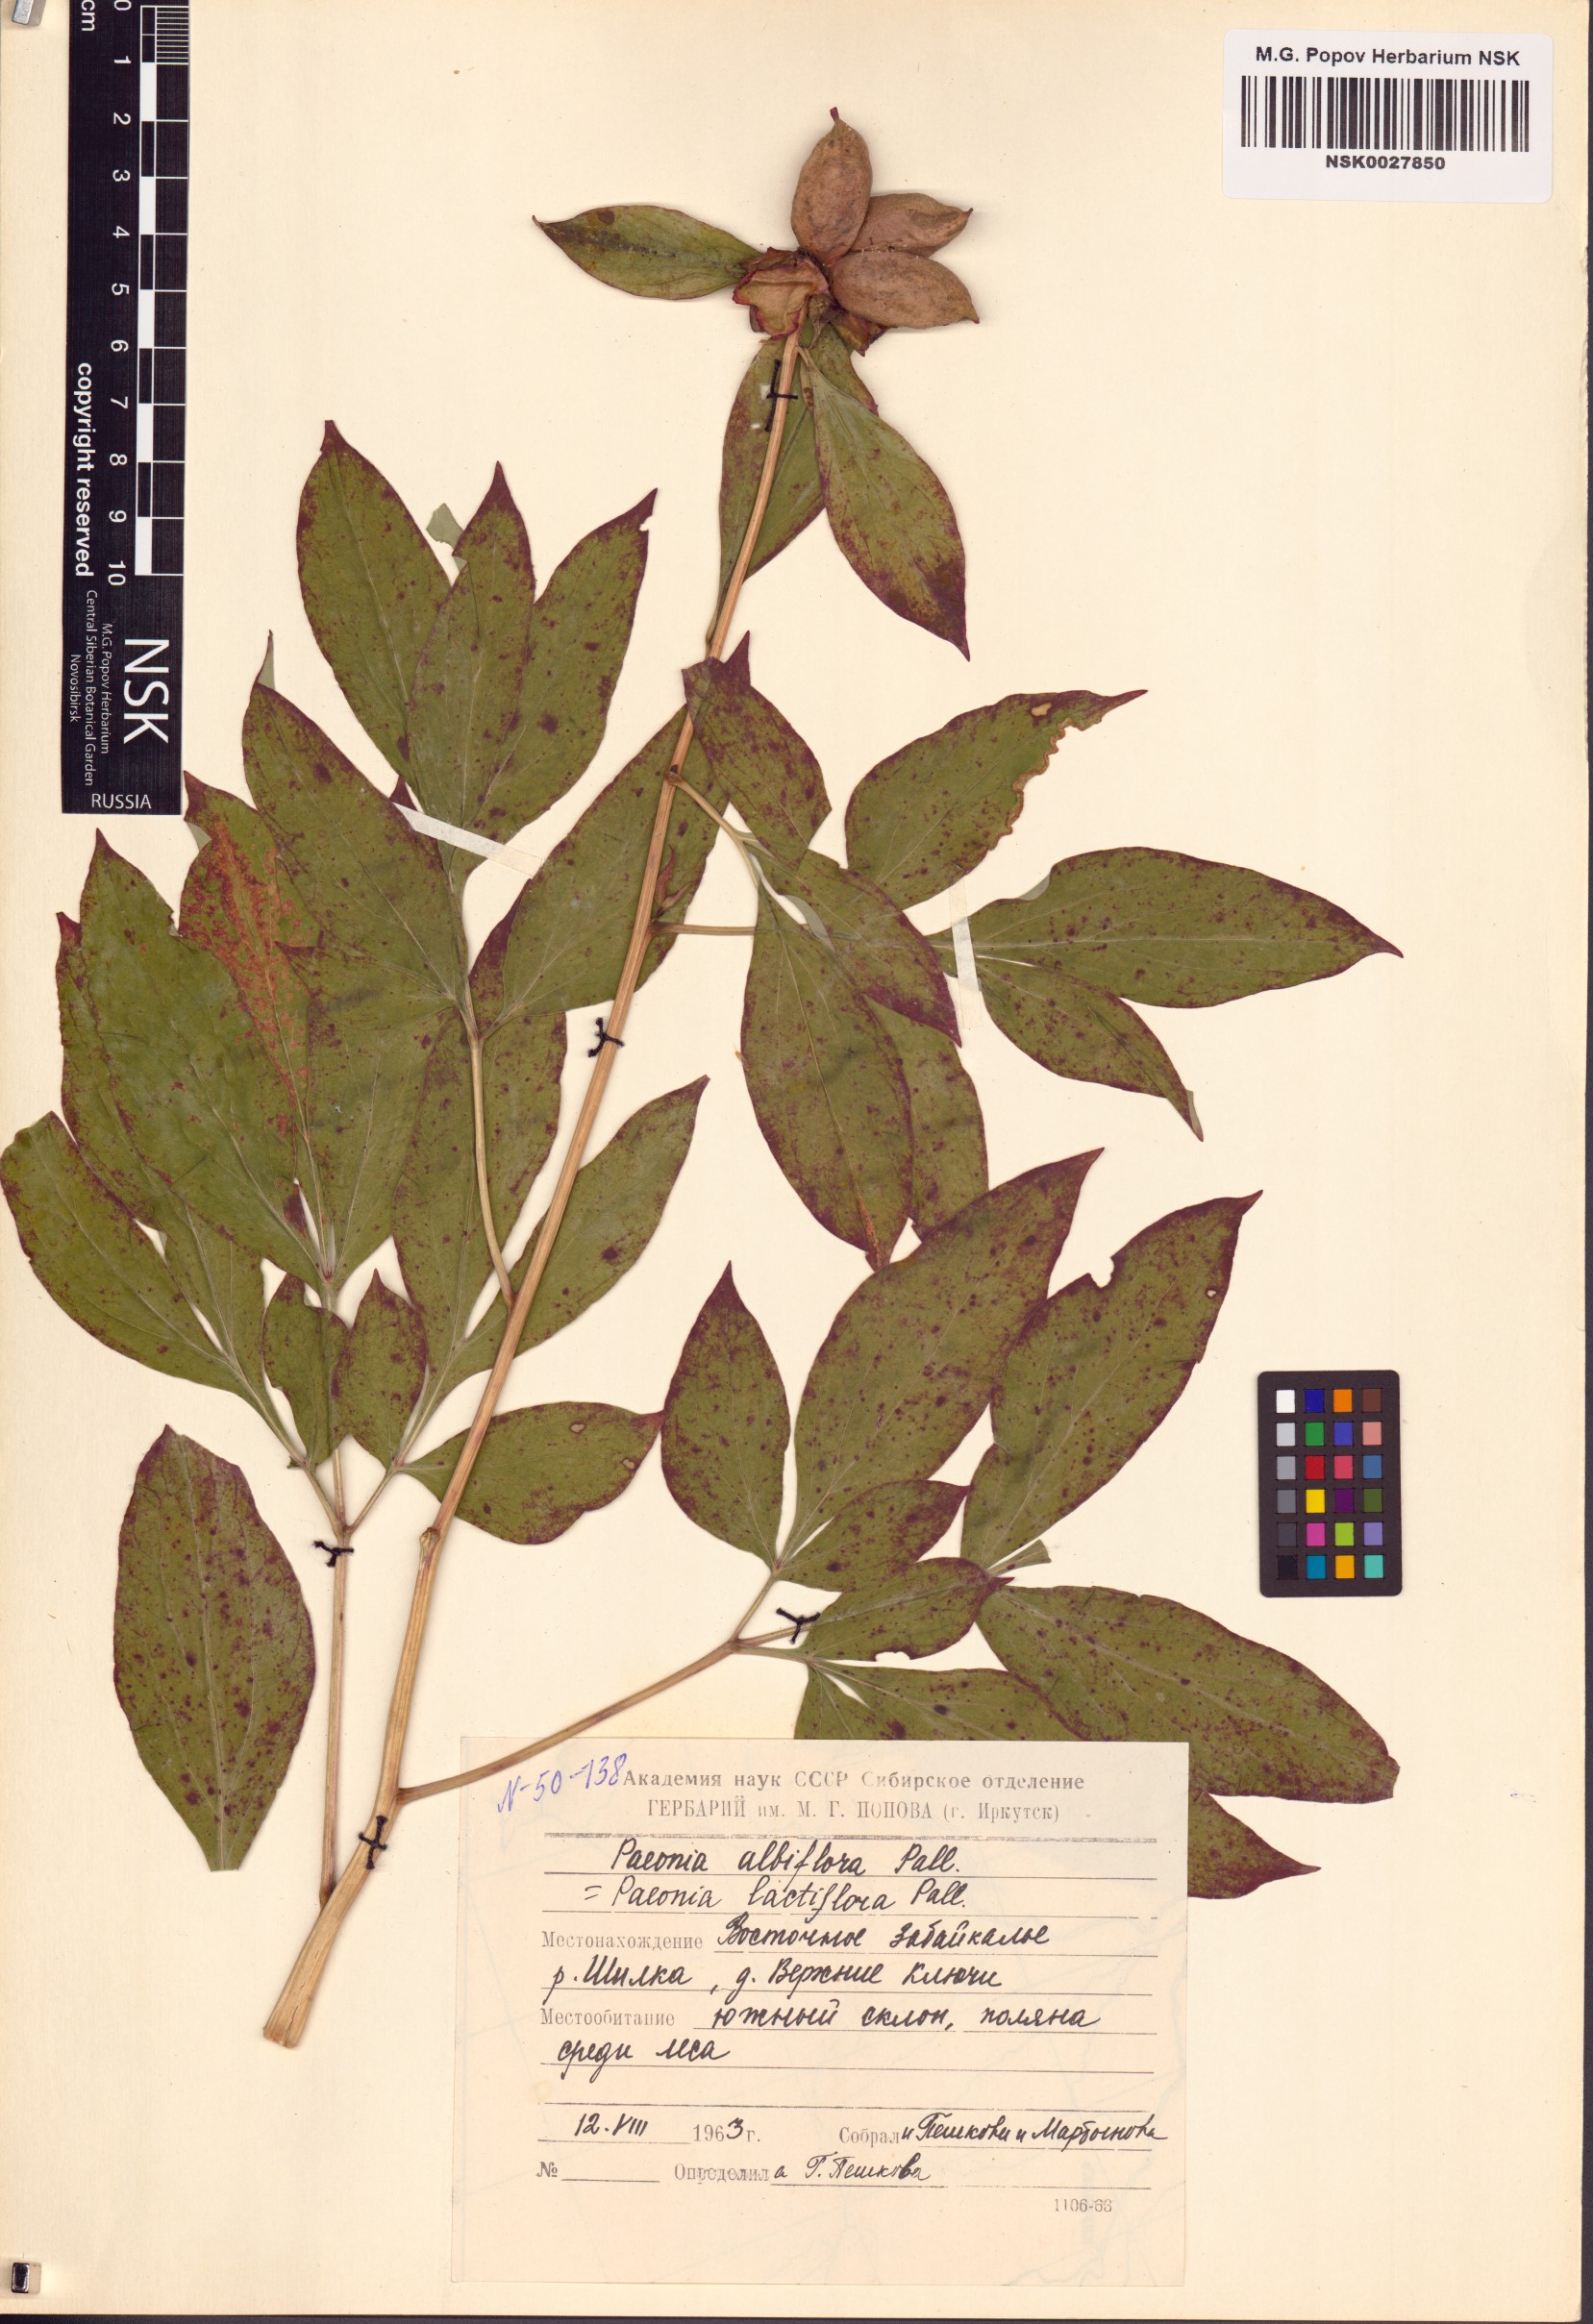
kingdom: Plantae
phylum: Tracheophyta
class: Magnoliopsida
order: Saxifragales
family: Paeoniaceae
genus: Paeonia
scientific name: Paeonia lactiflora
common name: Chinese peony
